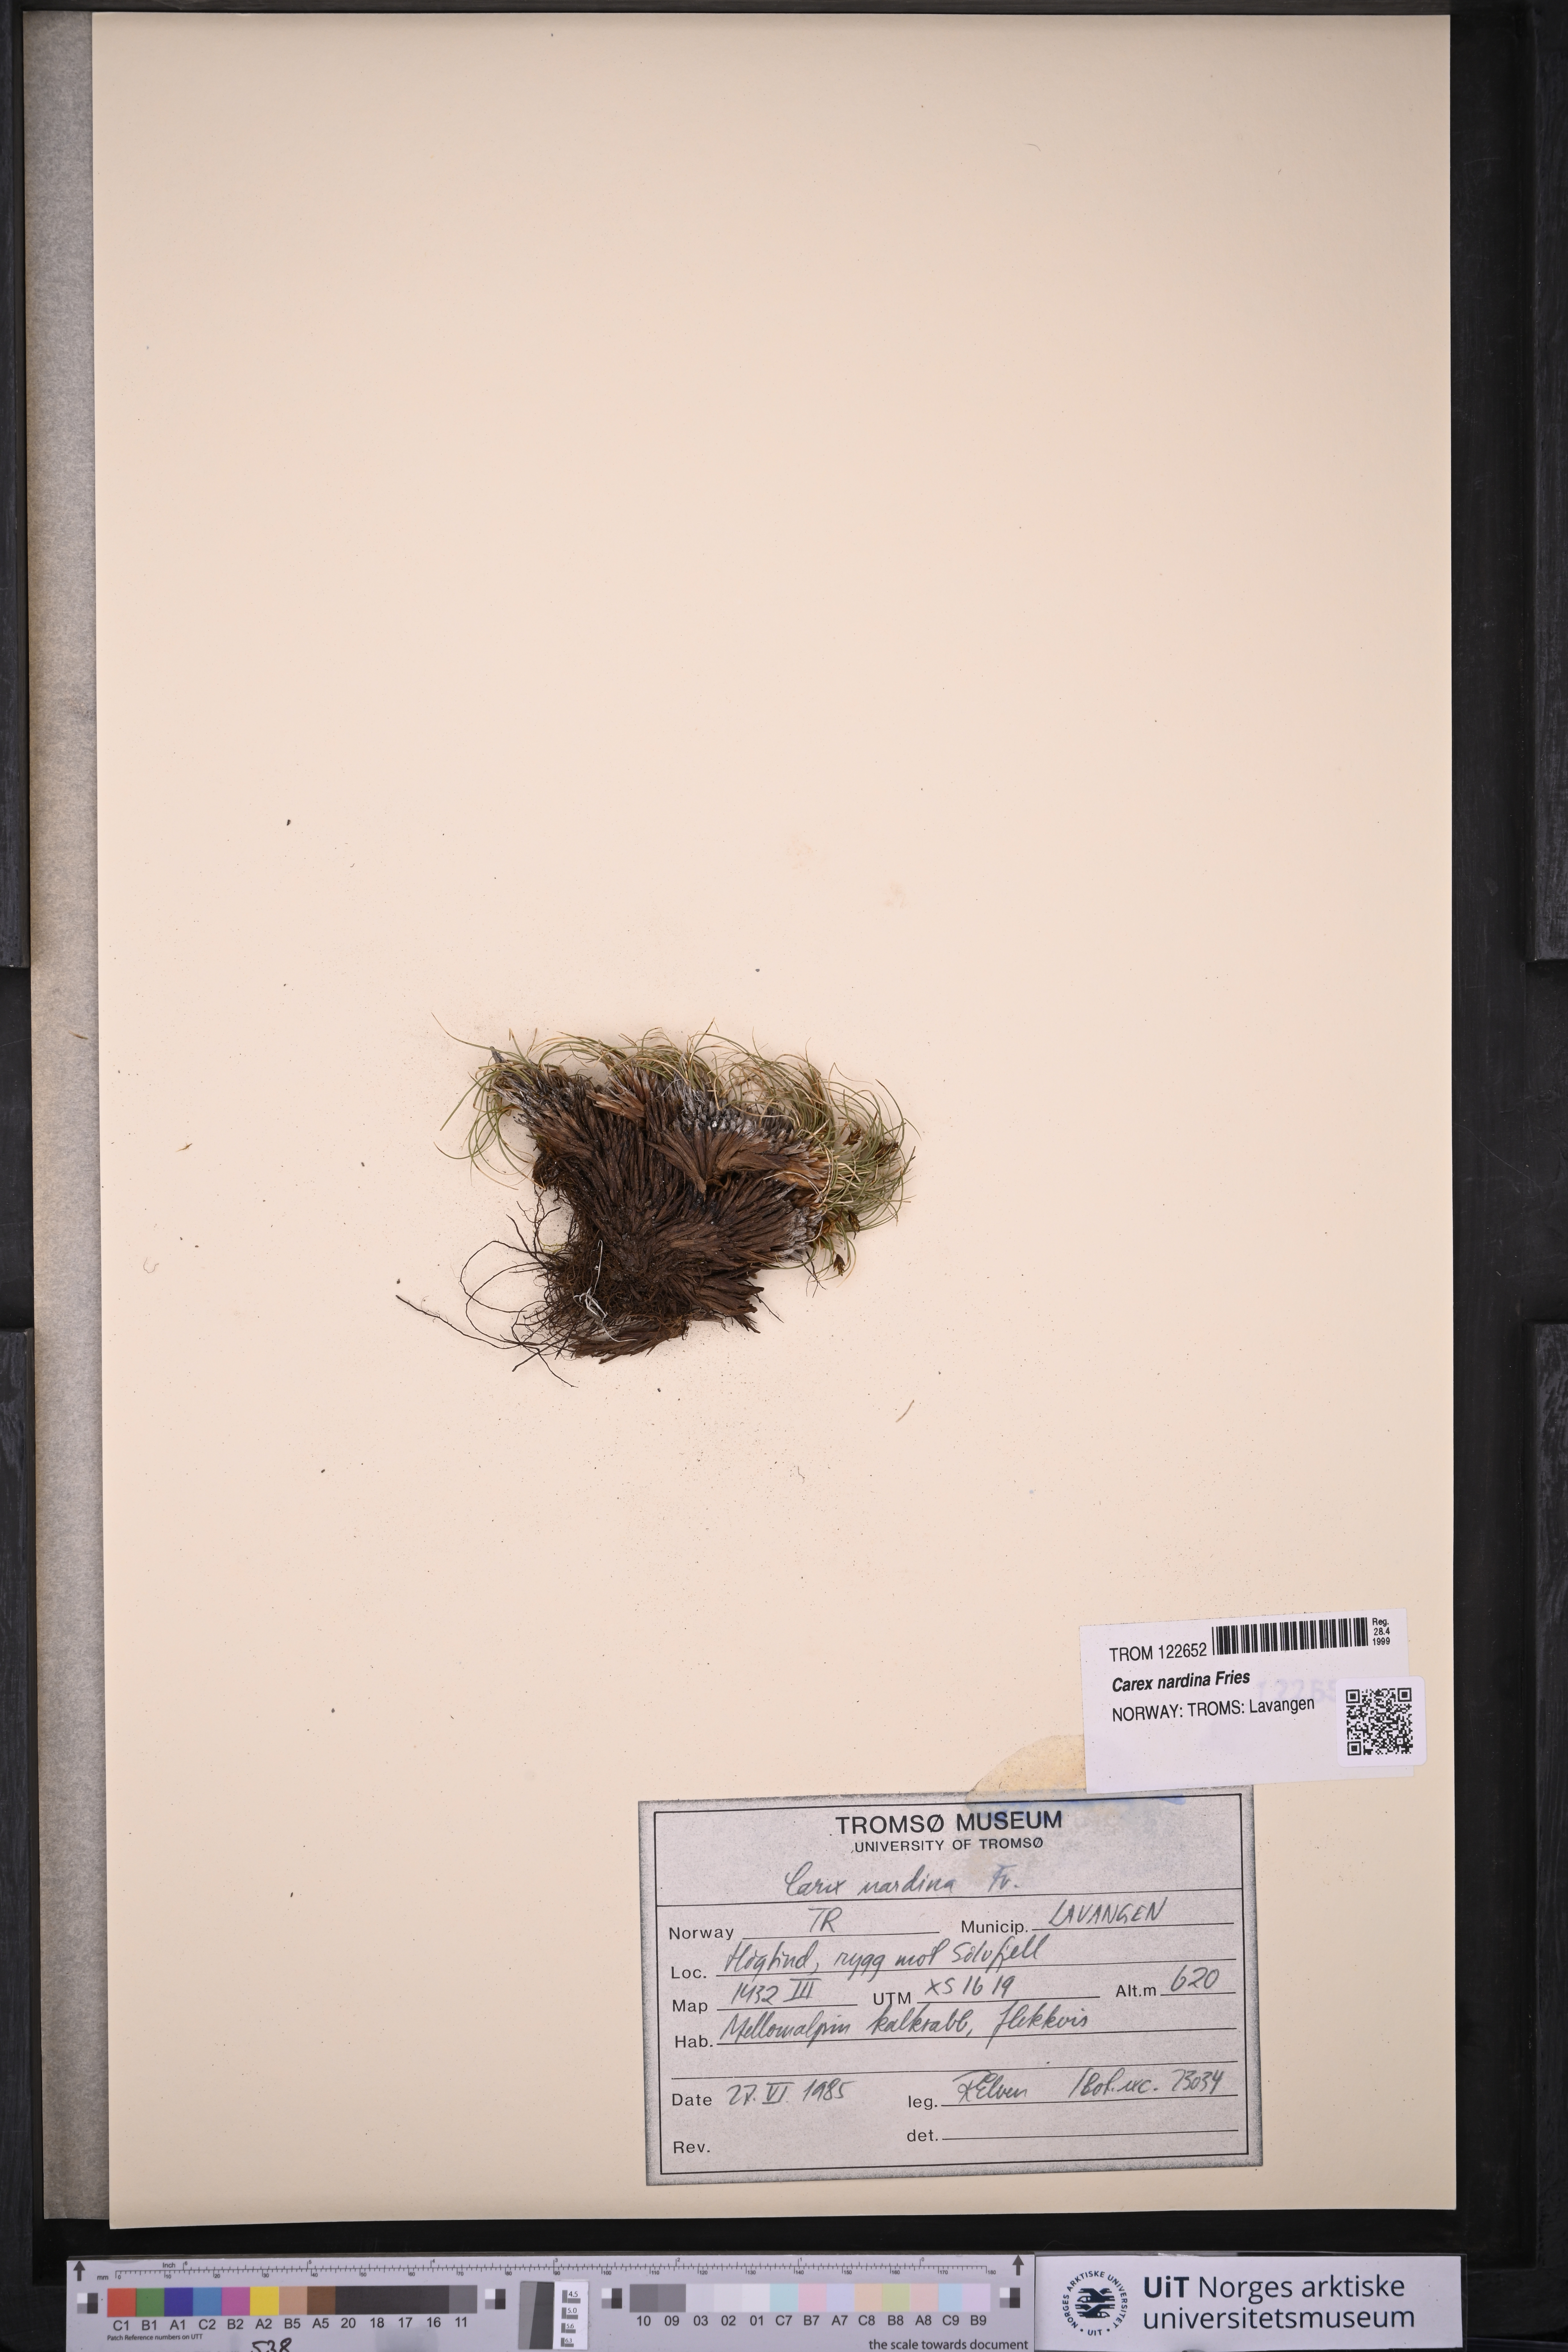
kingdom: Plantae
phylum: Tracheophyta
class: Liliopsida
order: Poales
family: Cyperaceae
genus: Carex
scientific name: Carex nardina
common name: Nard sedge
